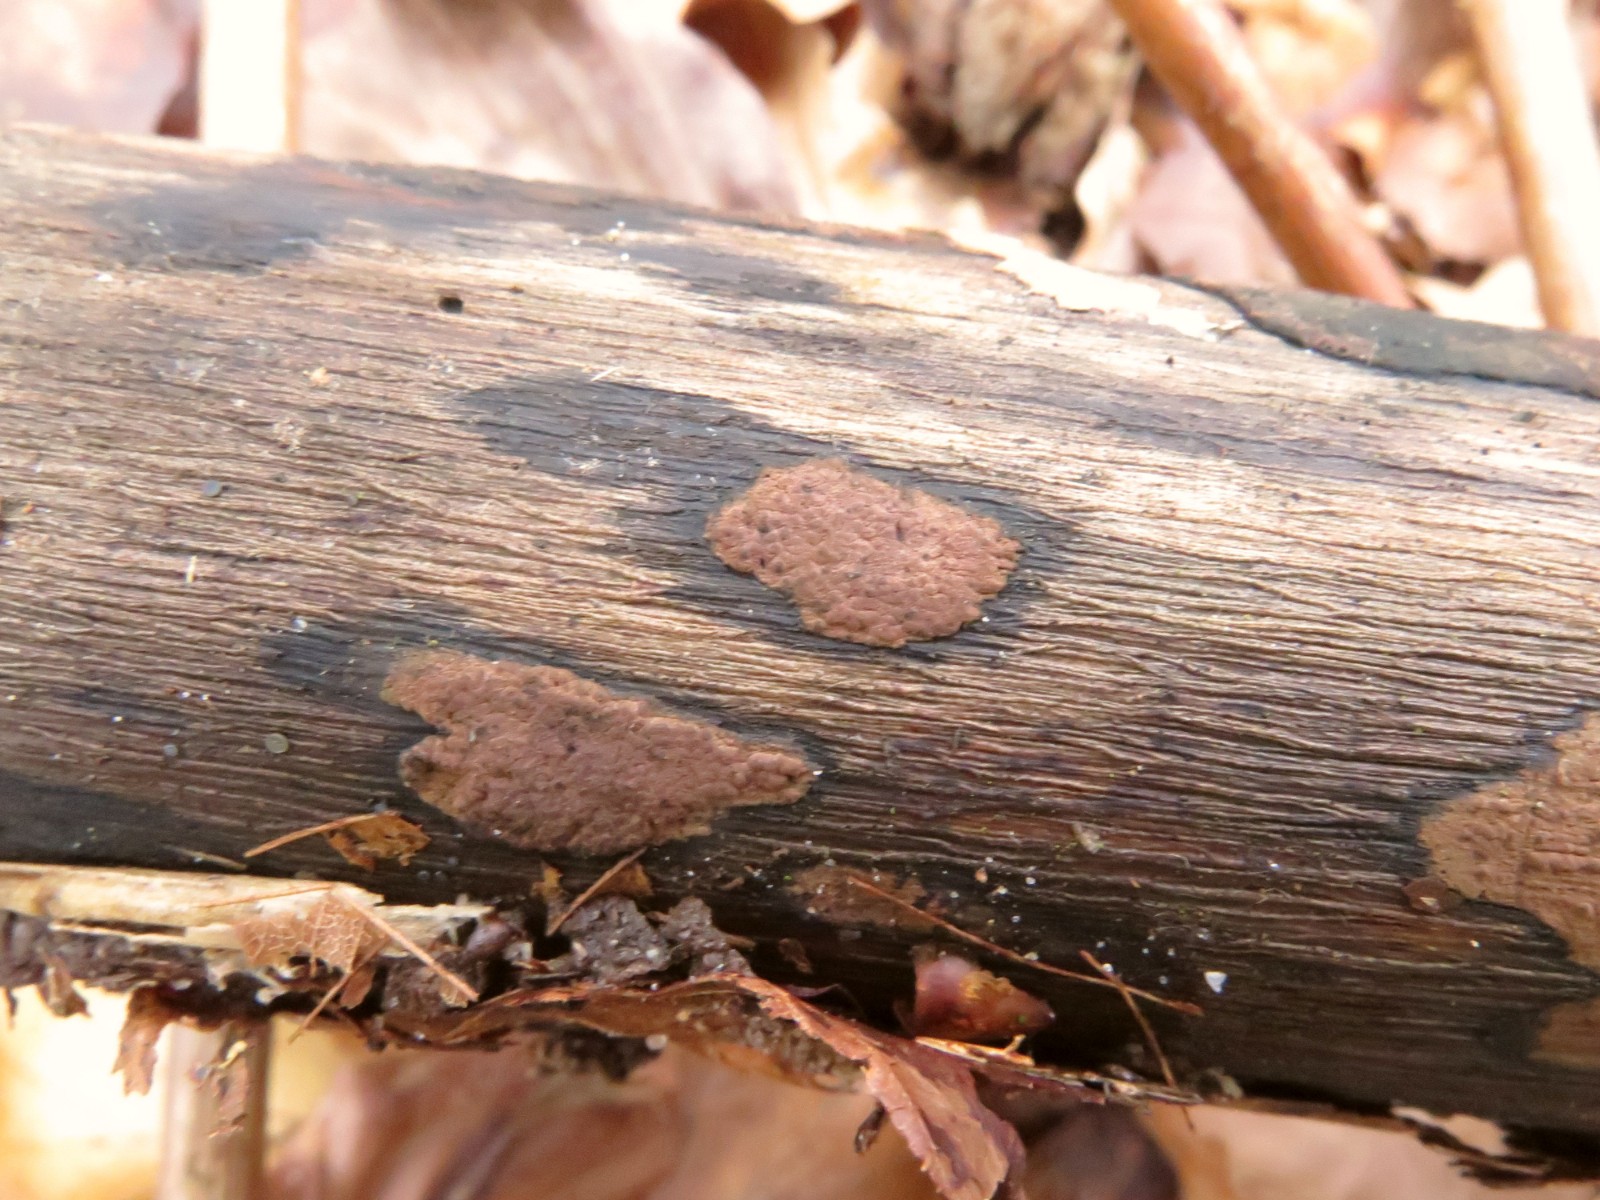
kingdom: Fungi
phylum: Ascomycota
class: Sordariomycetes
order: Xylariales
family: Hypoxylaceae
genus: Hypoxylon
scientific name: Hypoxylon petriniae
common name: nedsænket kulbær
